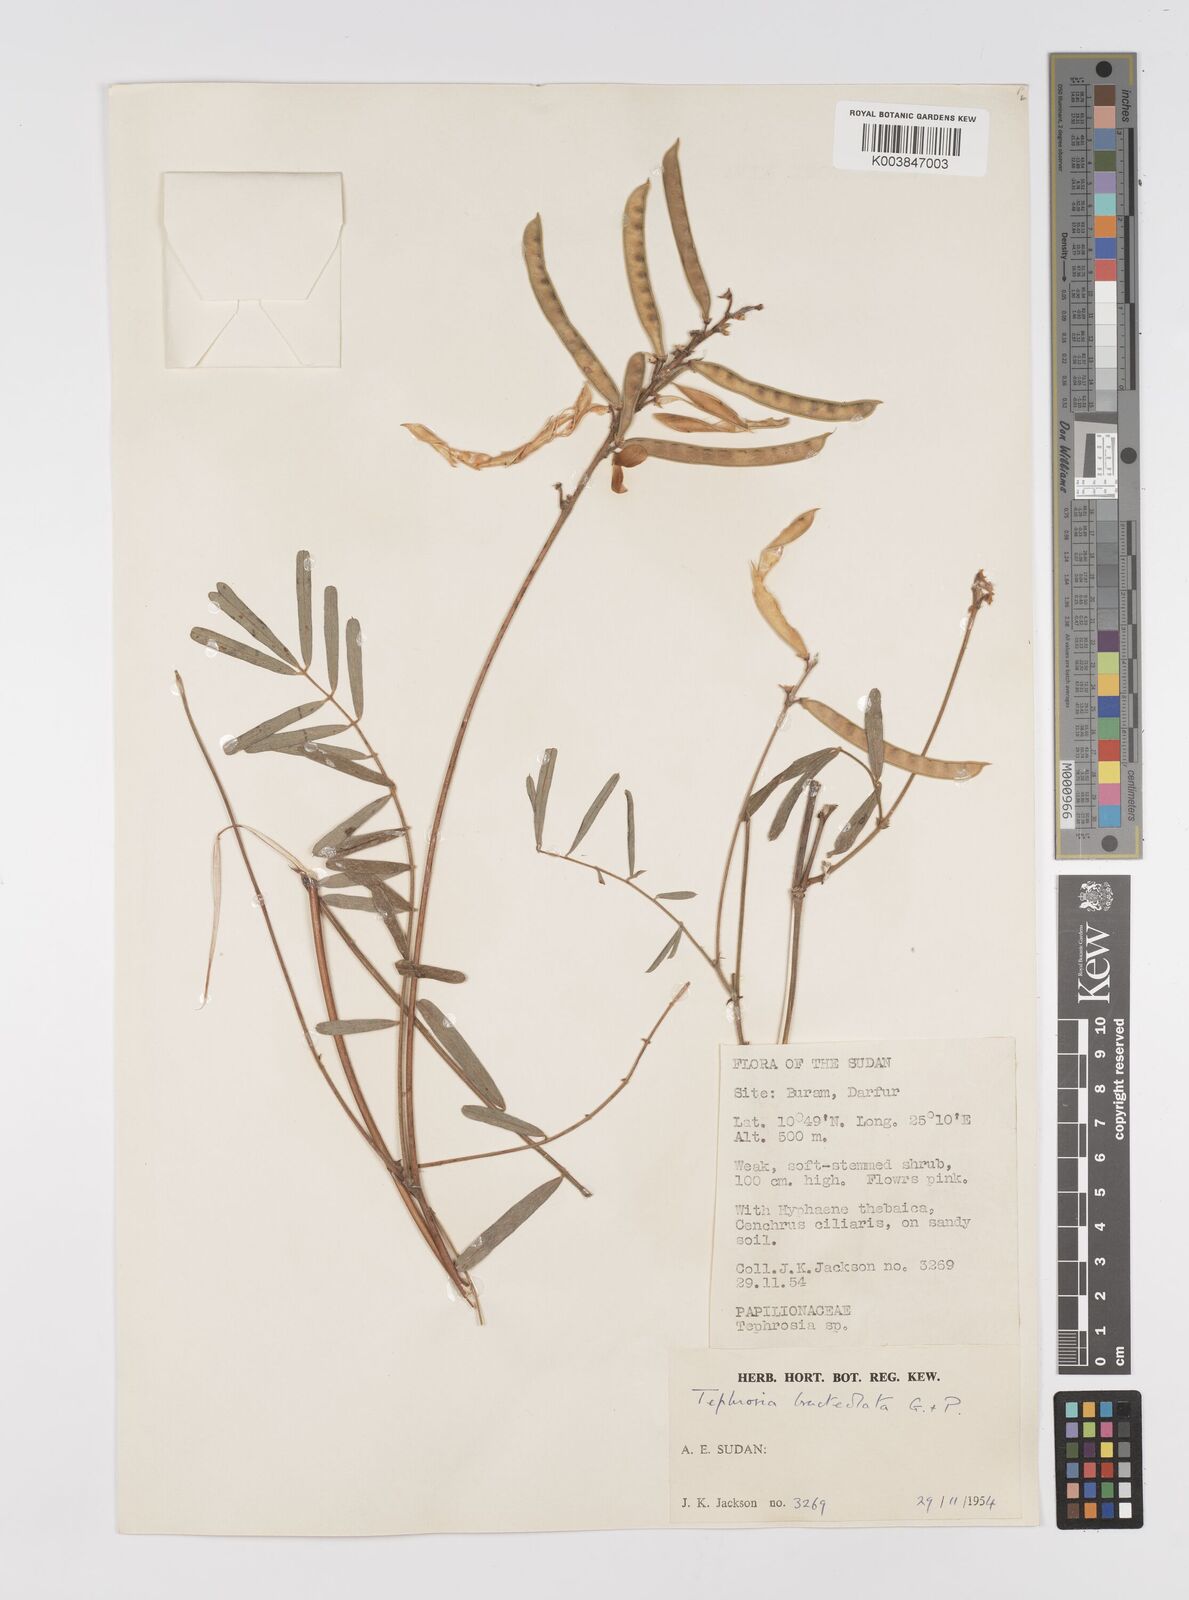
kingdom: Plantae
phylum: Tracheophyta
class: Magnoliopsida
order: Fabales
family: Fabaceae
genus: Tephrosia
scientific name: Tephrosia bracteolata
